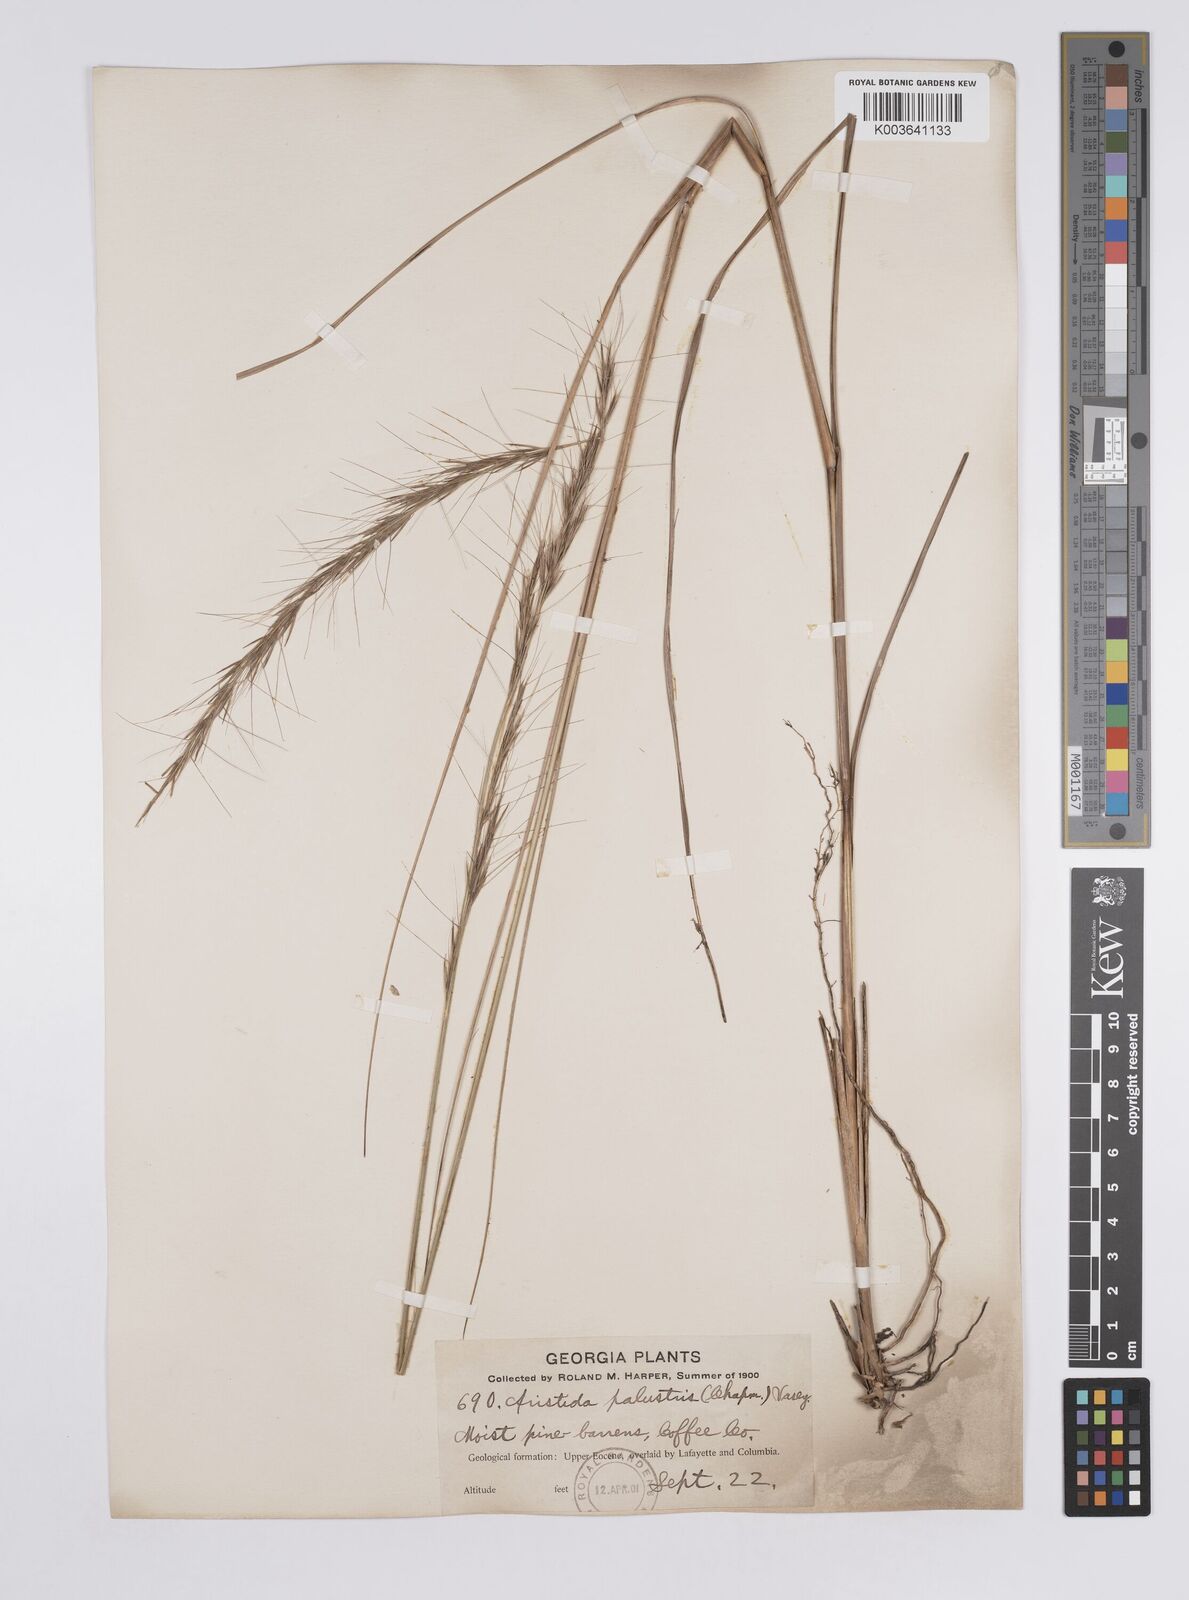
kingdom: Plantae
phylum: Tracheophyta
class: Liliopsida
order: Poales
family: Poaceae
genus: Aristida
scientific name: Aristida palustris
